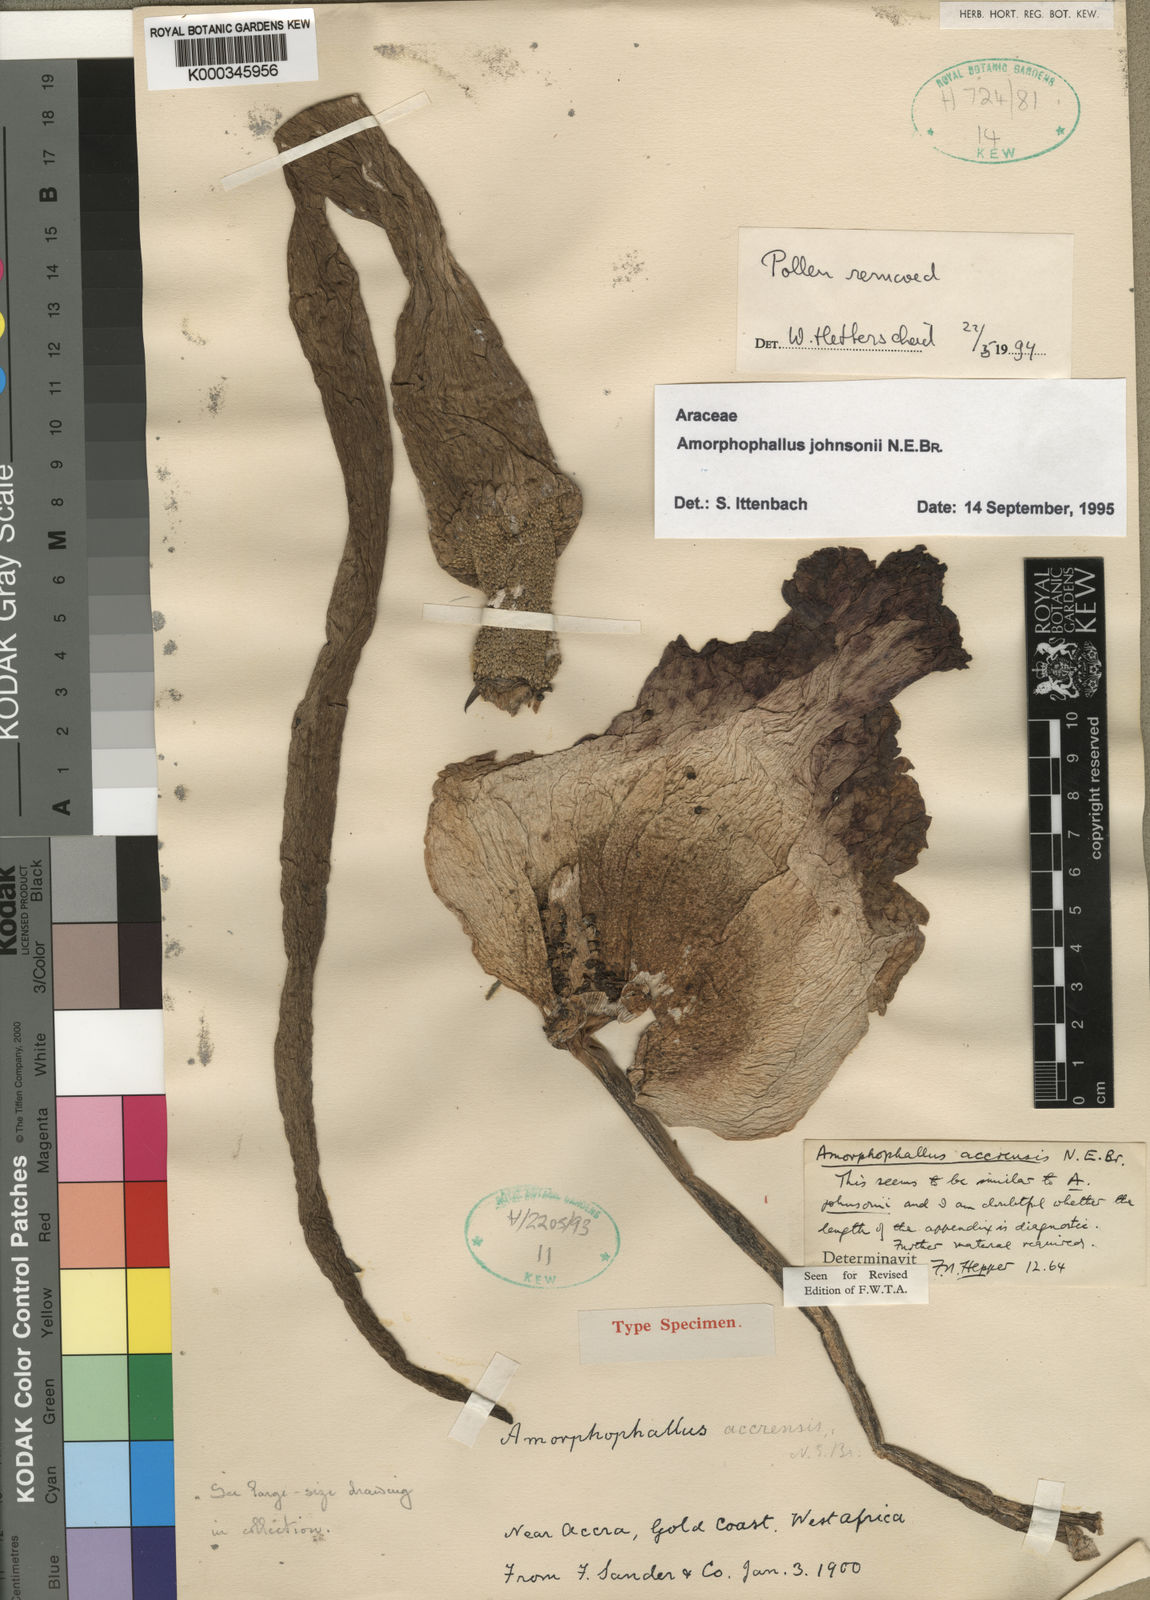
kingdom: Plantae
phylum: Tracheophyta
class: Liliopsida
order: Alismatales
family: Araceae
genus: Amorphophallus
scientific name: Amorphophallus johnsonii
